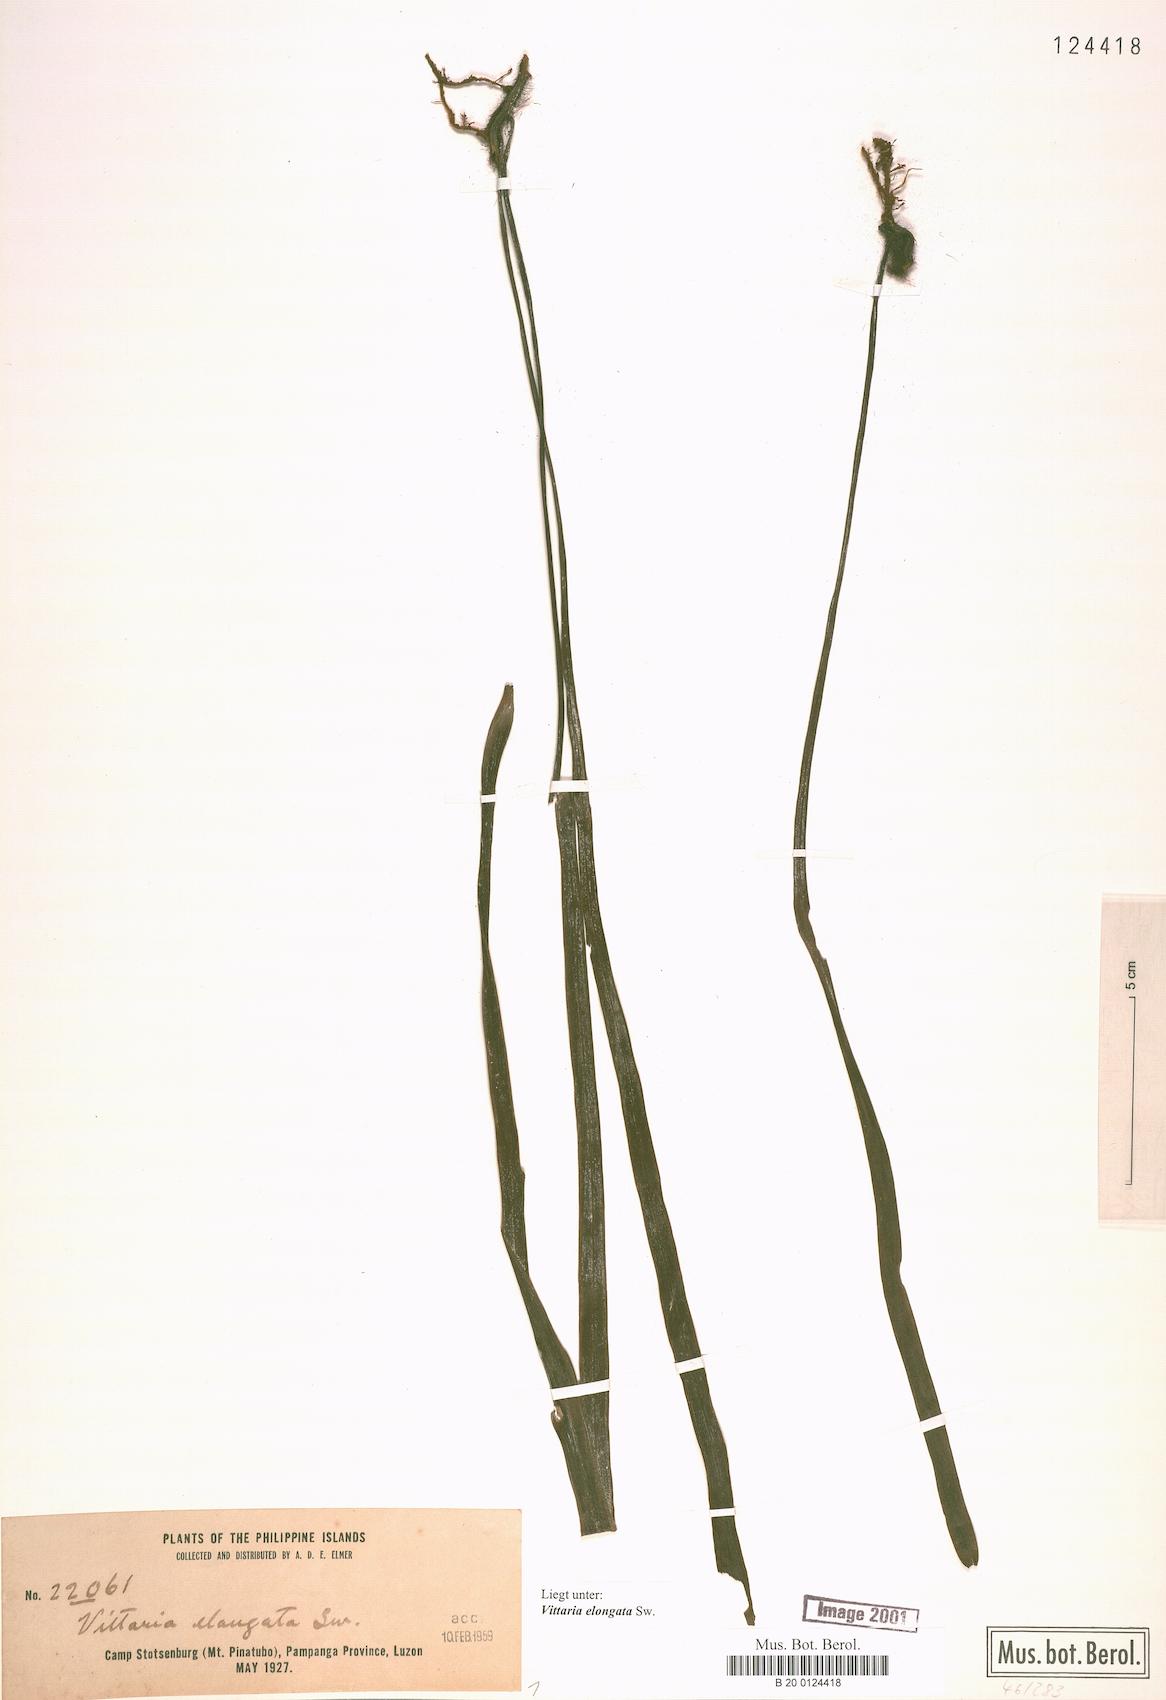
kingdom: Plantae
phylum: Tracheophyta
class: Polypodiopsida
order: Polypodiales
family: Pteridaceae
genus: Haplopteris
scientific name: Haplopteris elongata
